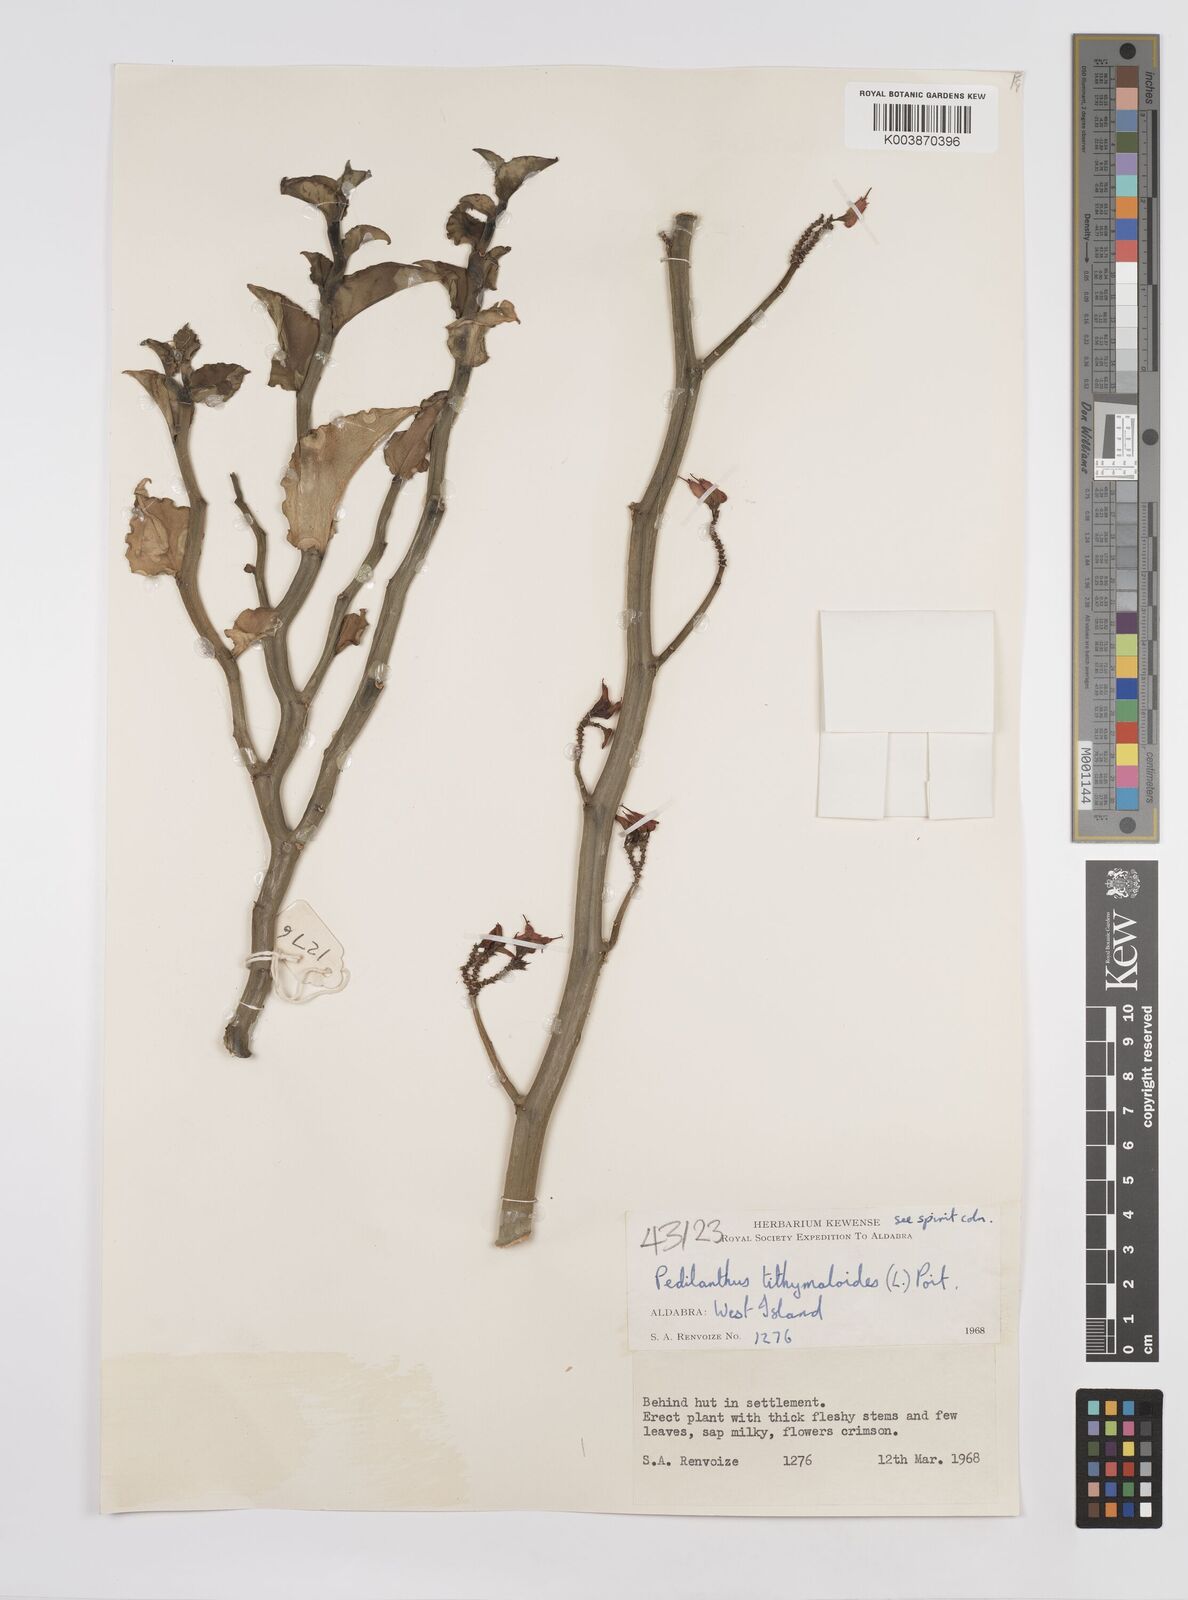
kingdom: Plantae
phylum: Tracheophyta
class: Magnoliopsida
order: Malpighiales
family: Euphorbiaceae
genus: Euphorbia
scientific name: Euphorbia tithymaloides
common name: Slipperplant
